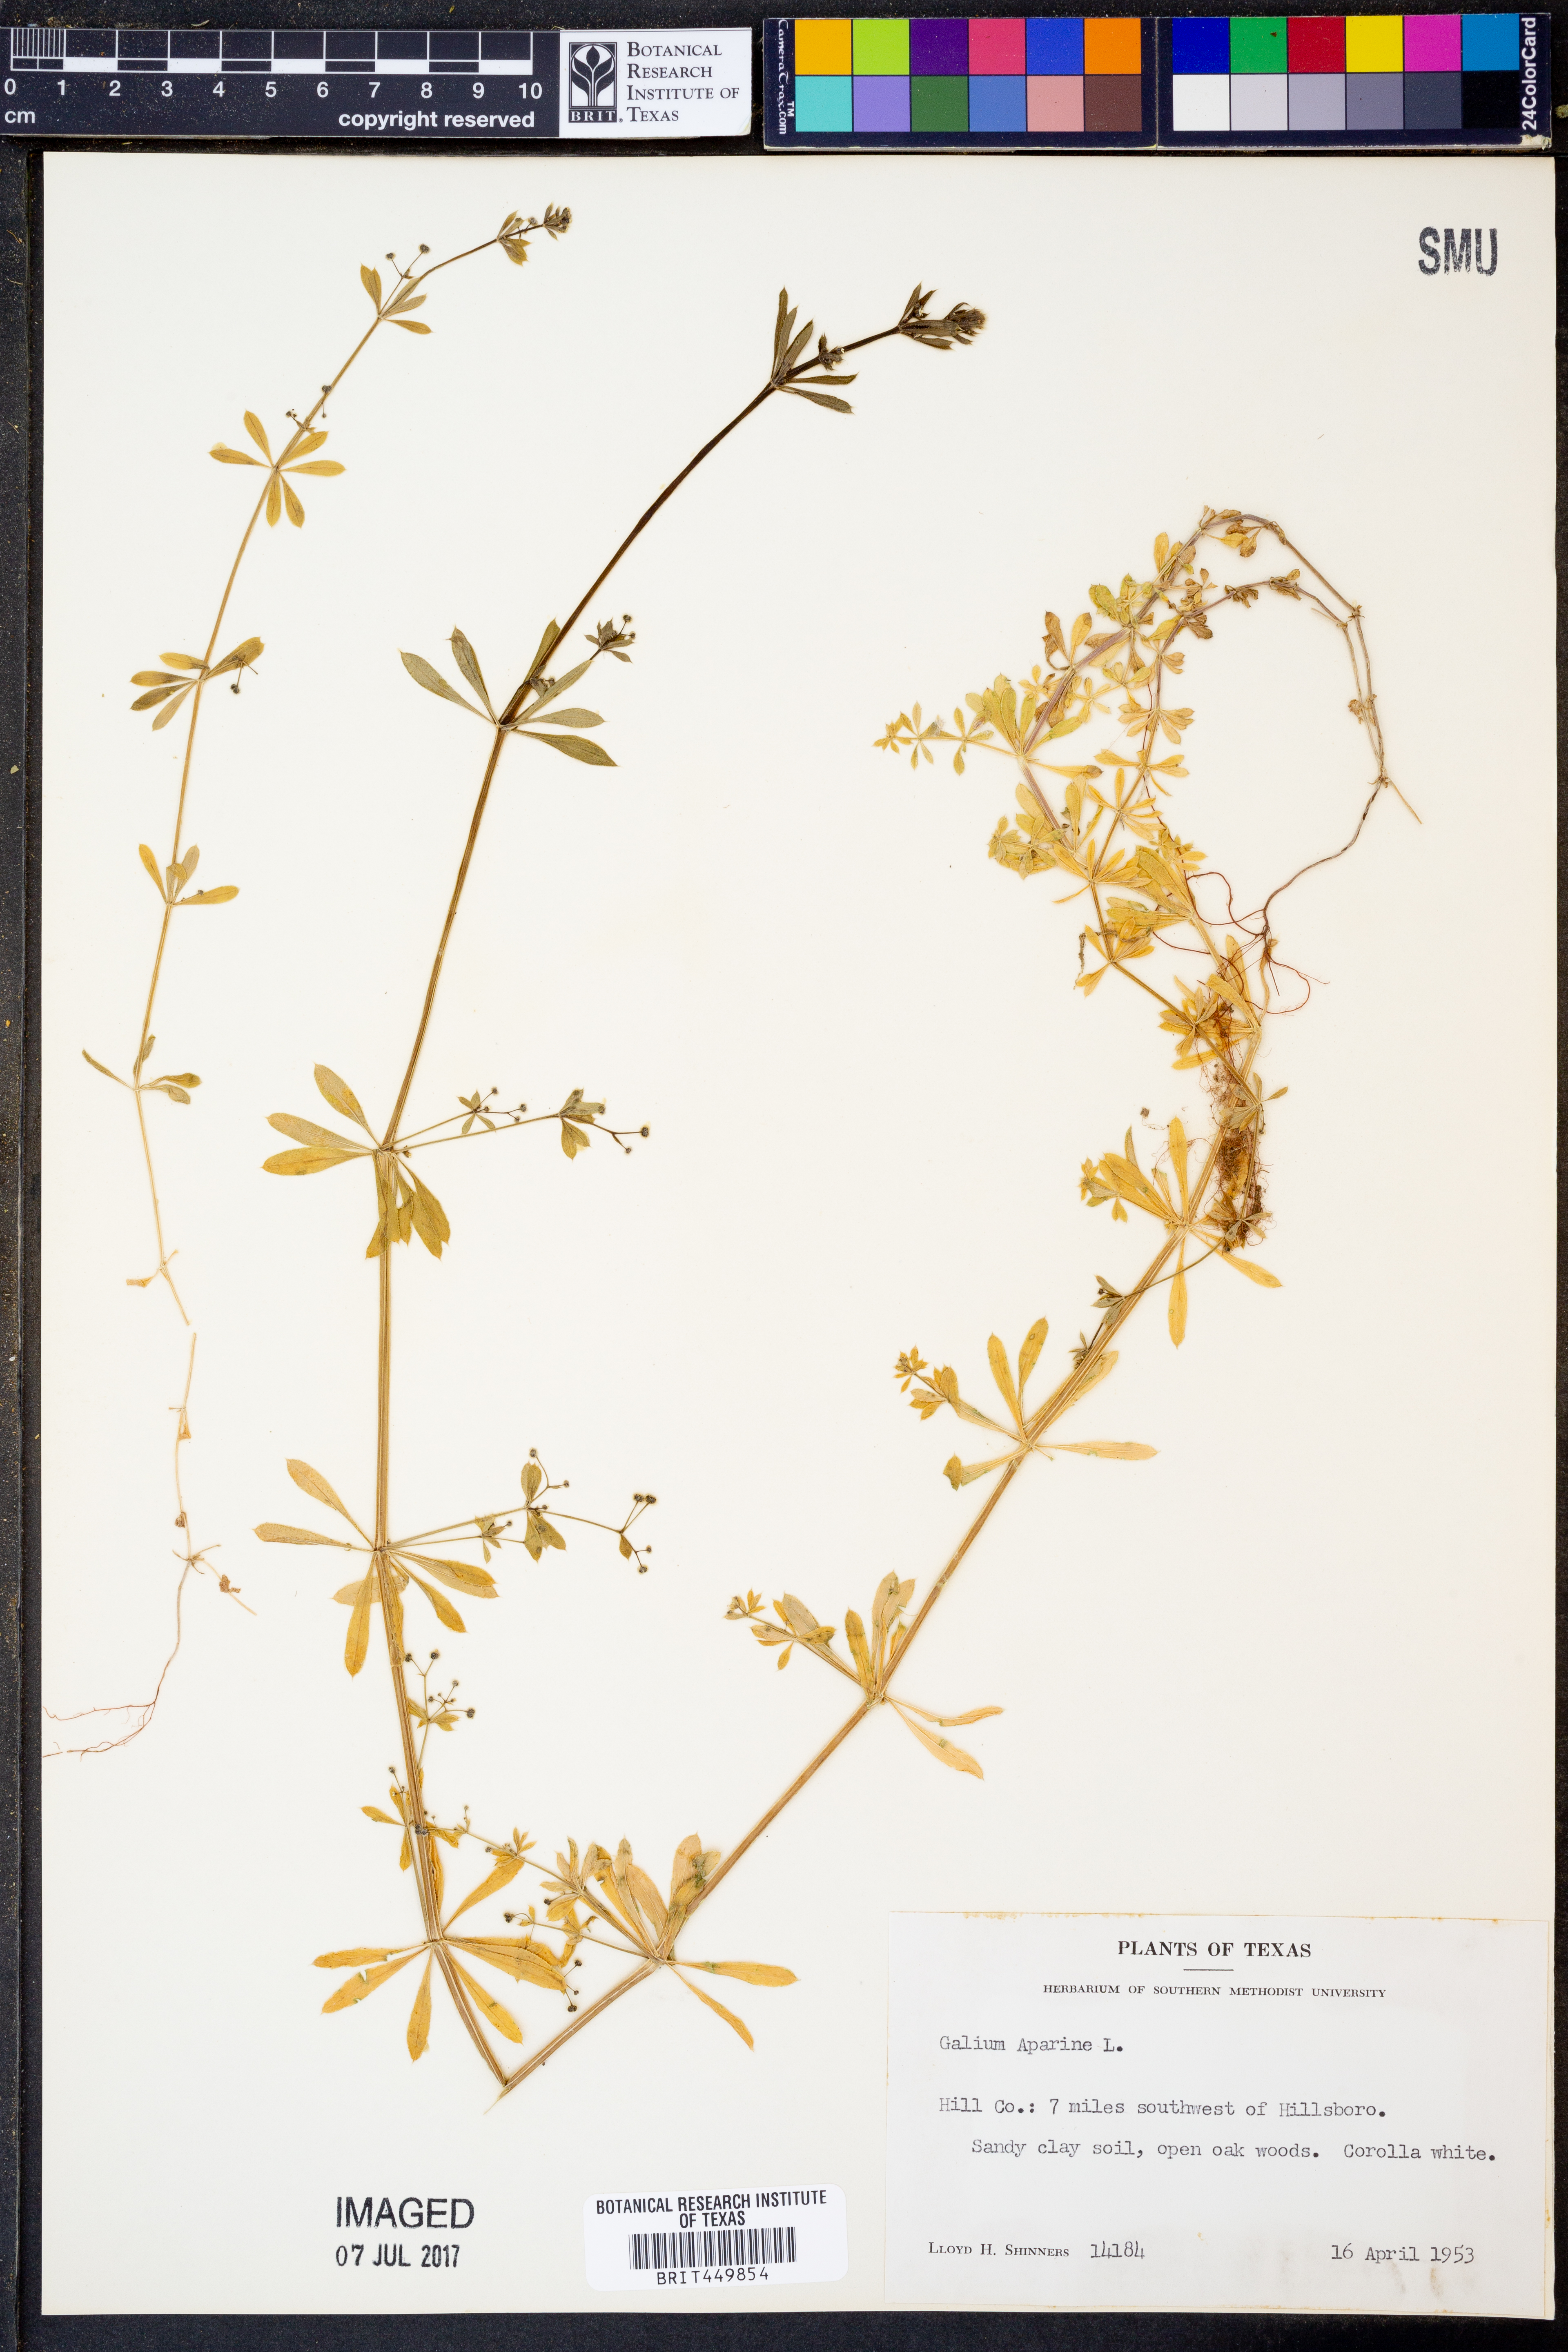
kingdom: Plantae
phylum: Tracheophyta
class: Magnoliopsida
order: Gentianales
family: Rubiaceae
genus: Galium
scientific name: Galium aparine
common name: Cleavers
